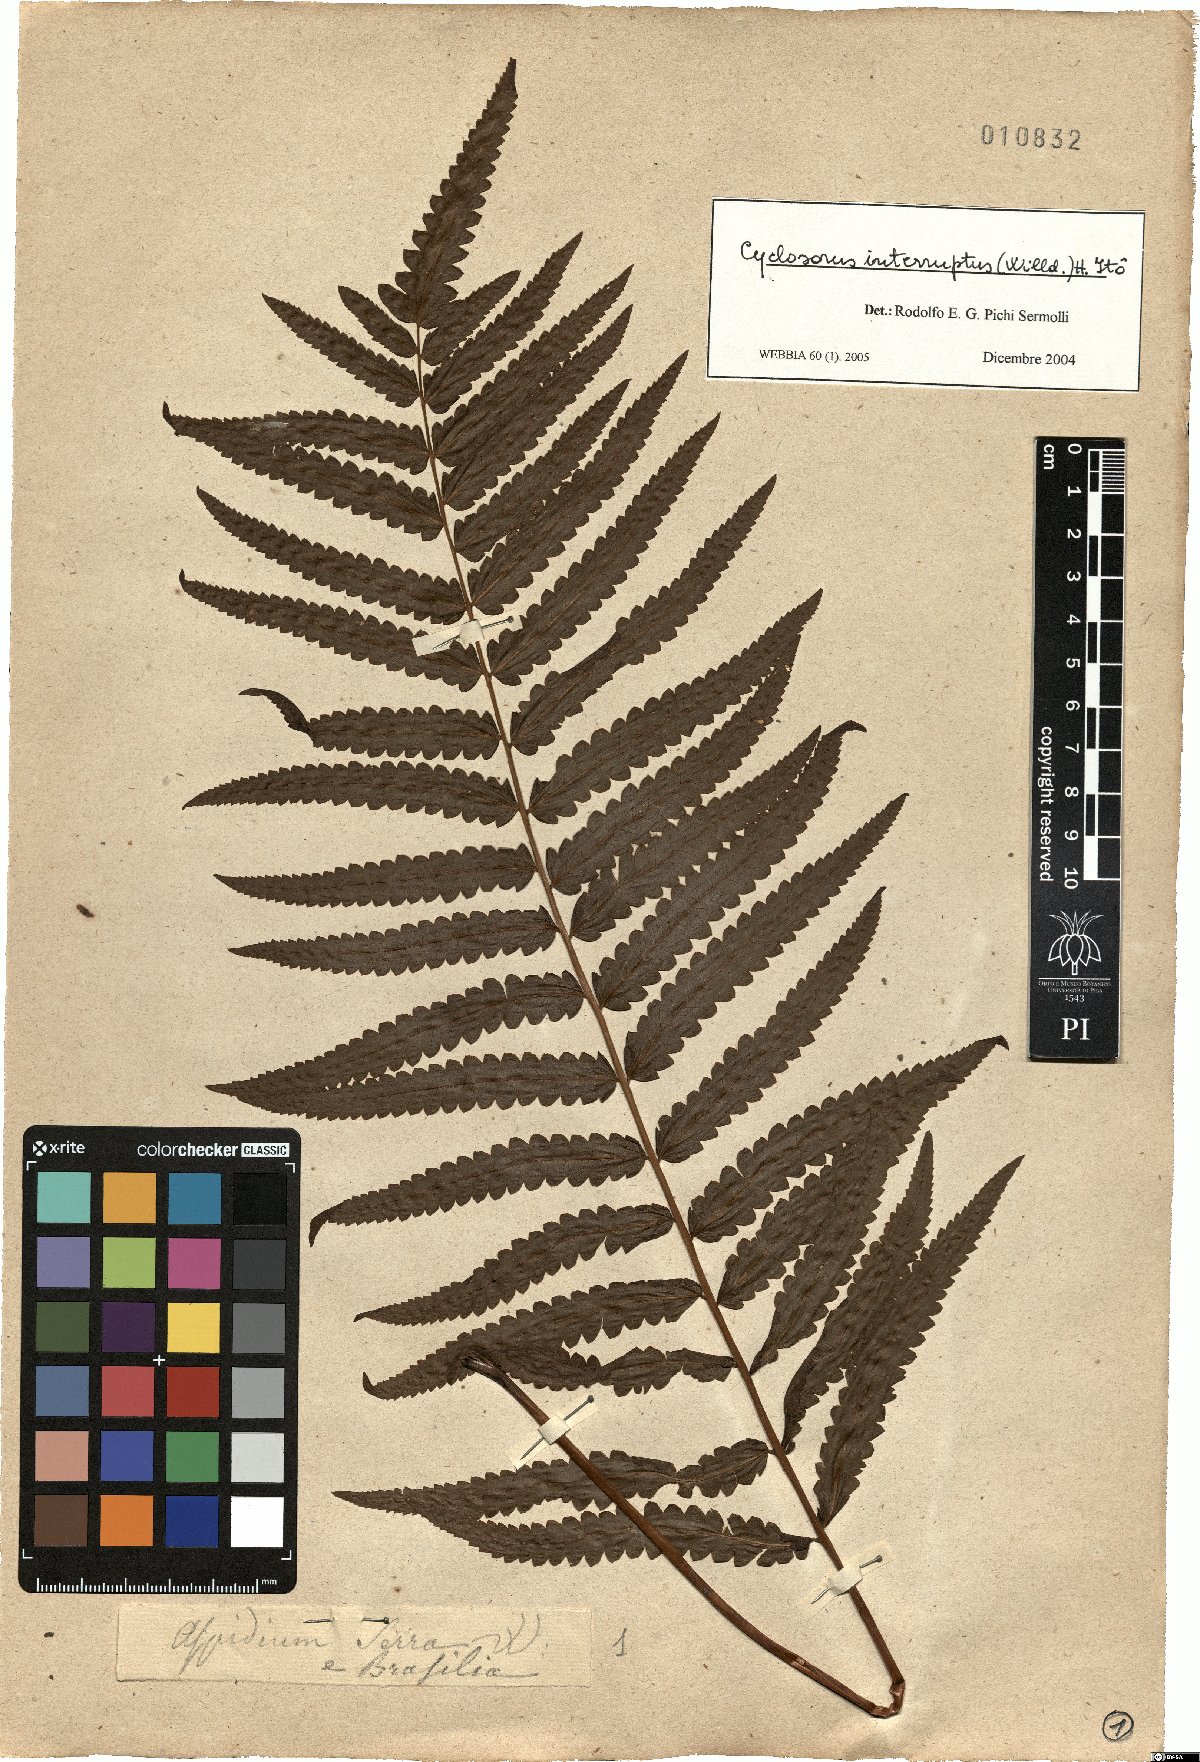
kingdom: Plantae
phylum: Tracheophyta
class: Polypodiopsida
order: Polypodiales
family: Thelypteridaceae
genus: Cyclosorus
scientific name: Cyclosorus interruptus
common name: Neke fern
